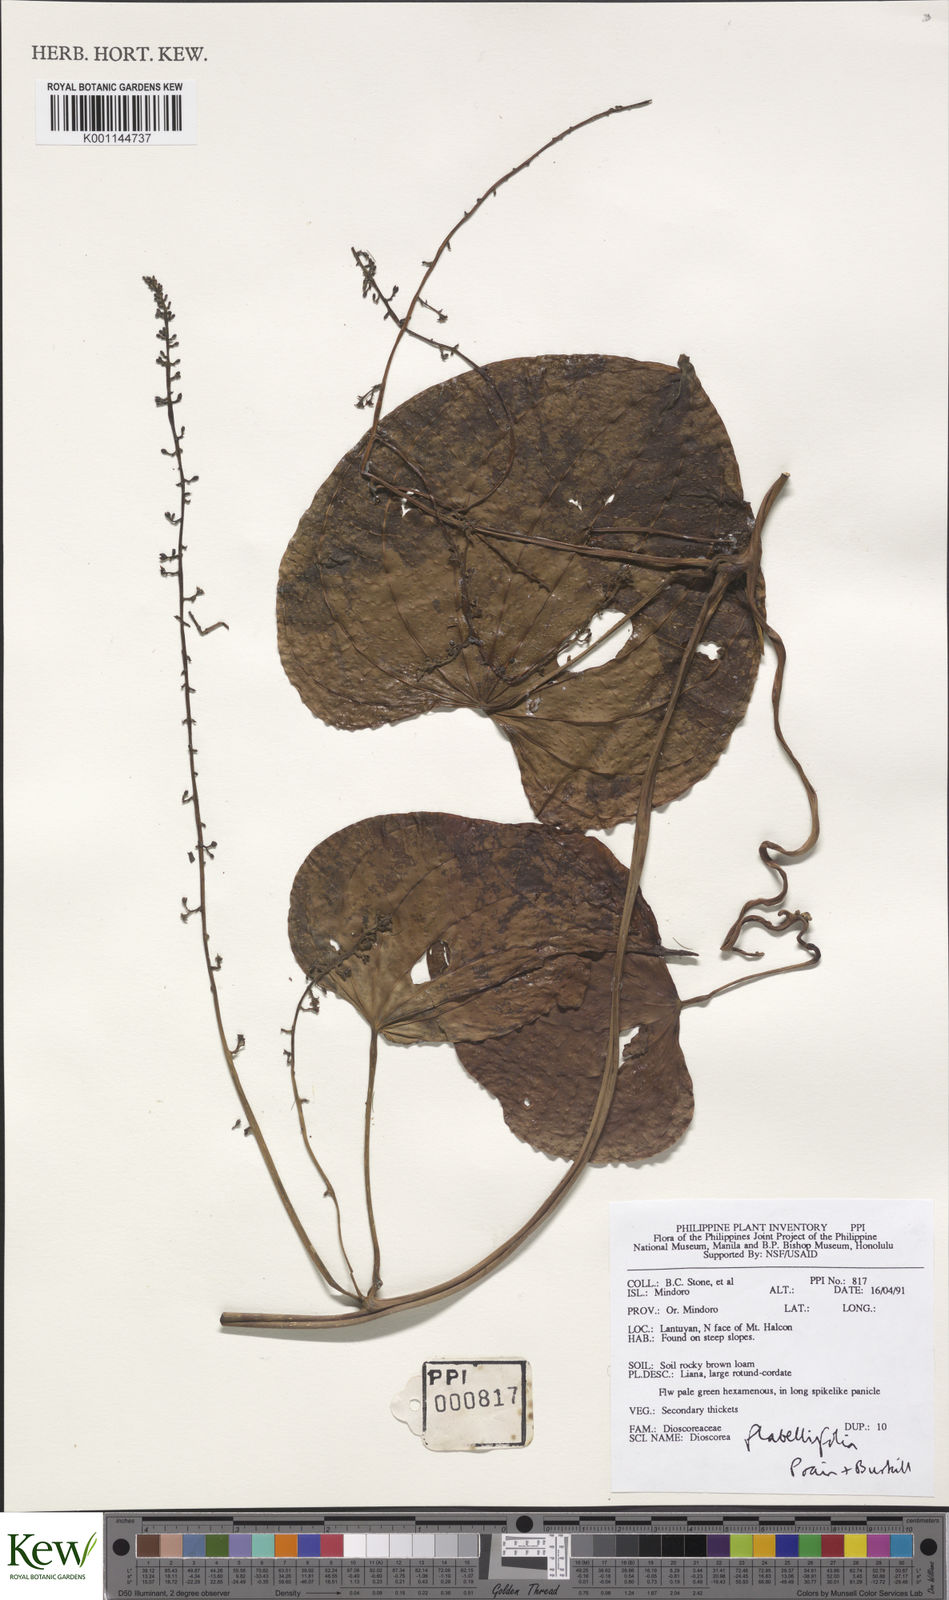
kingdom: Plantae
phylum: Tracheophyta
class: Liliopsida
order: Dioscoreales
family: Dioscoreaceae
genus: Dioscorea
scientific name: Dioscorea flabellifolia
